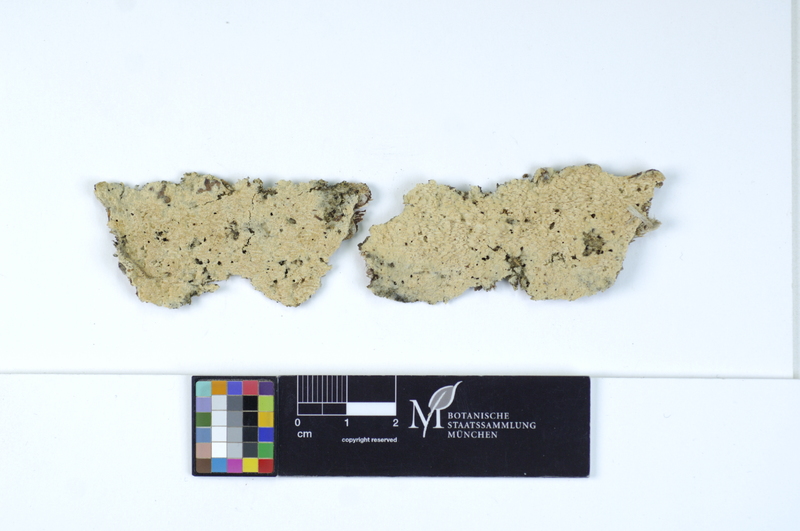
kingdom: Fungi
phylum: Basidiomycota
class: Agaricomycetes
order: Hymenochaetales
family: Schizoporaceae
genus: Schizopora
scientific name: Schizopora paradoxa
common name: Split porecrust
